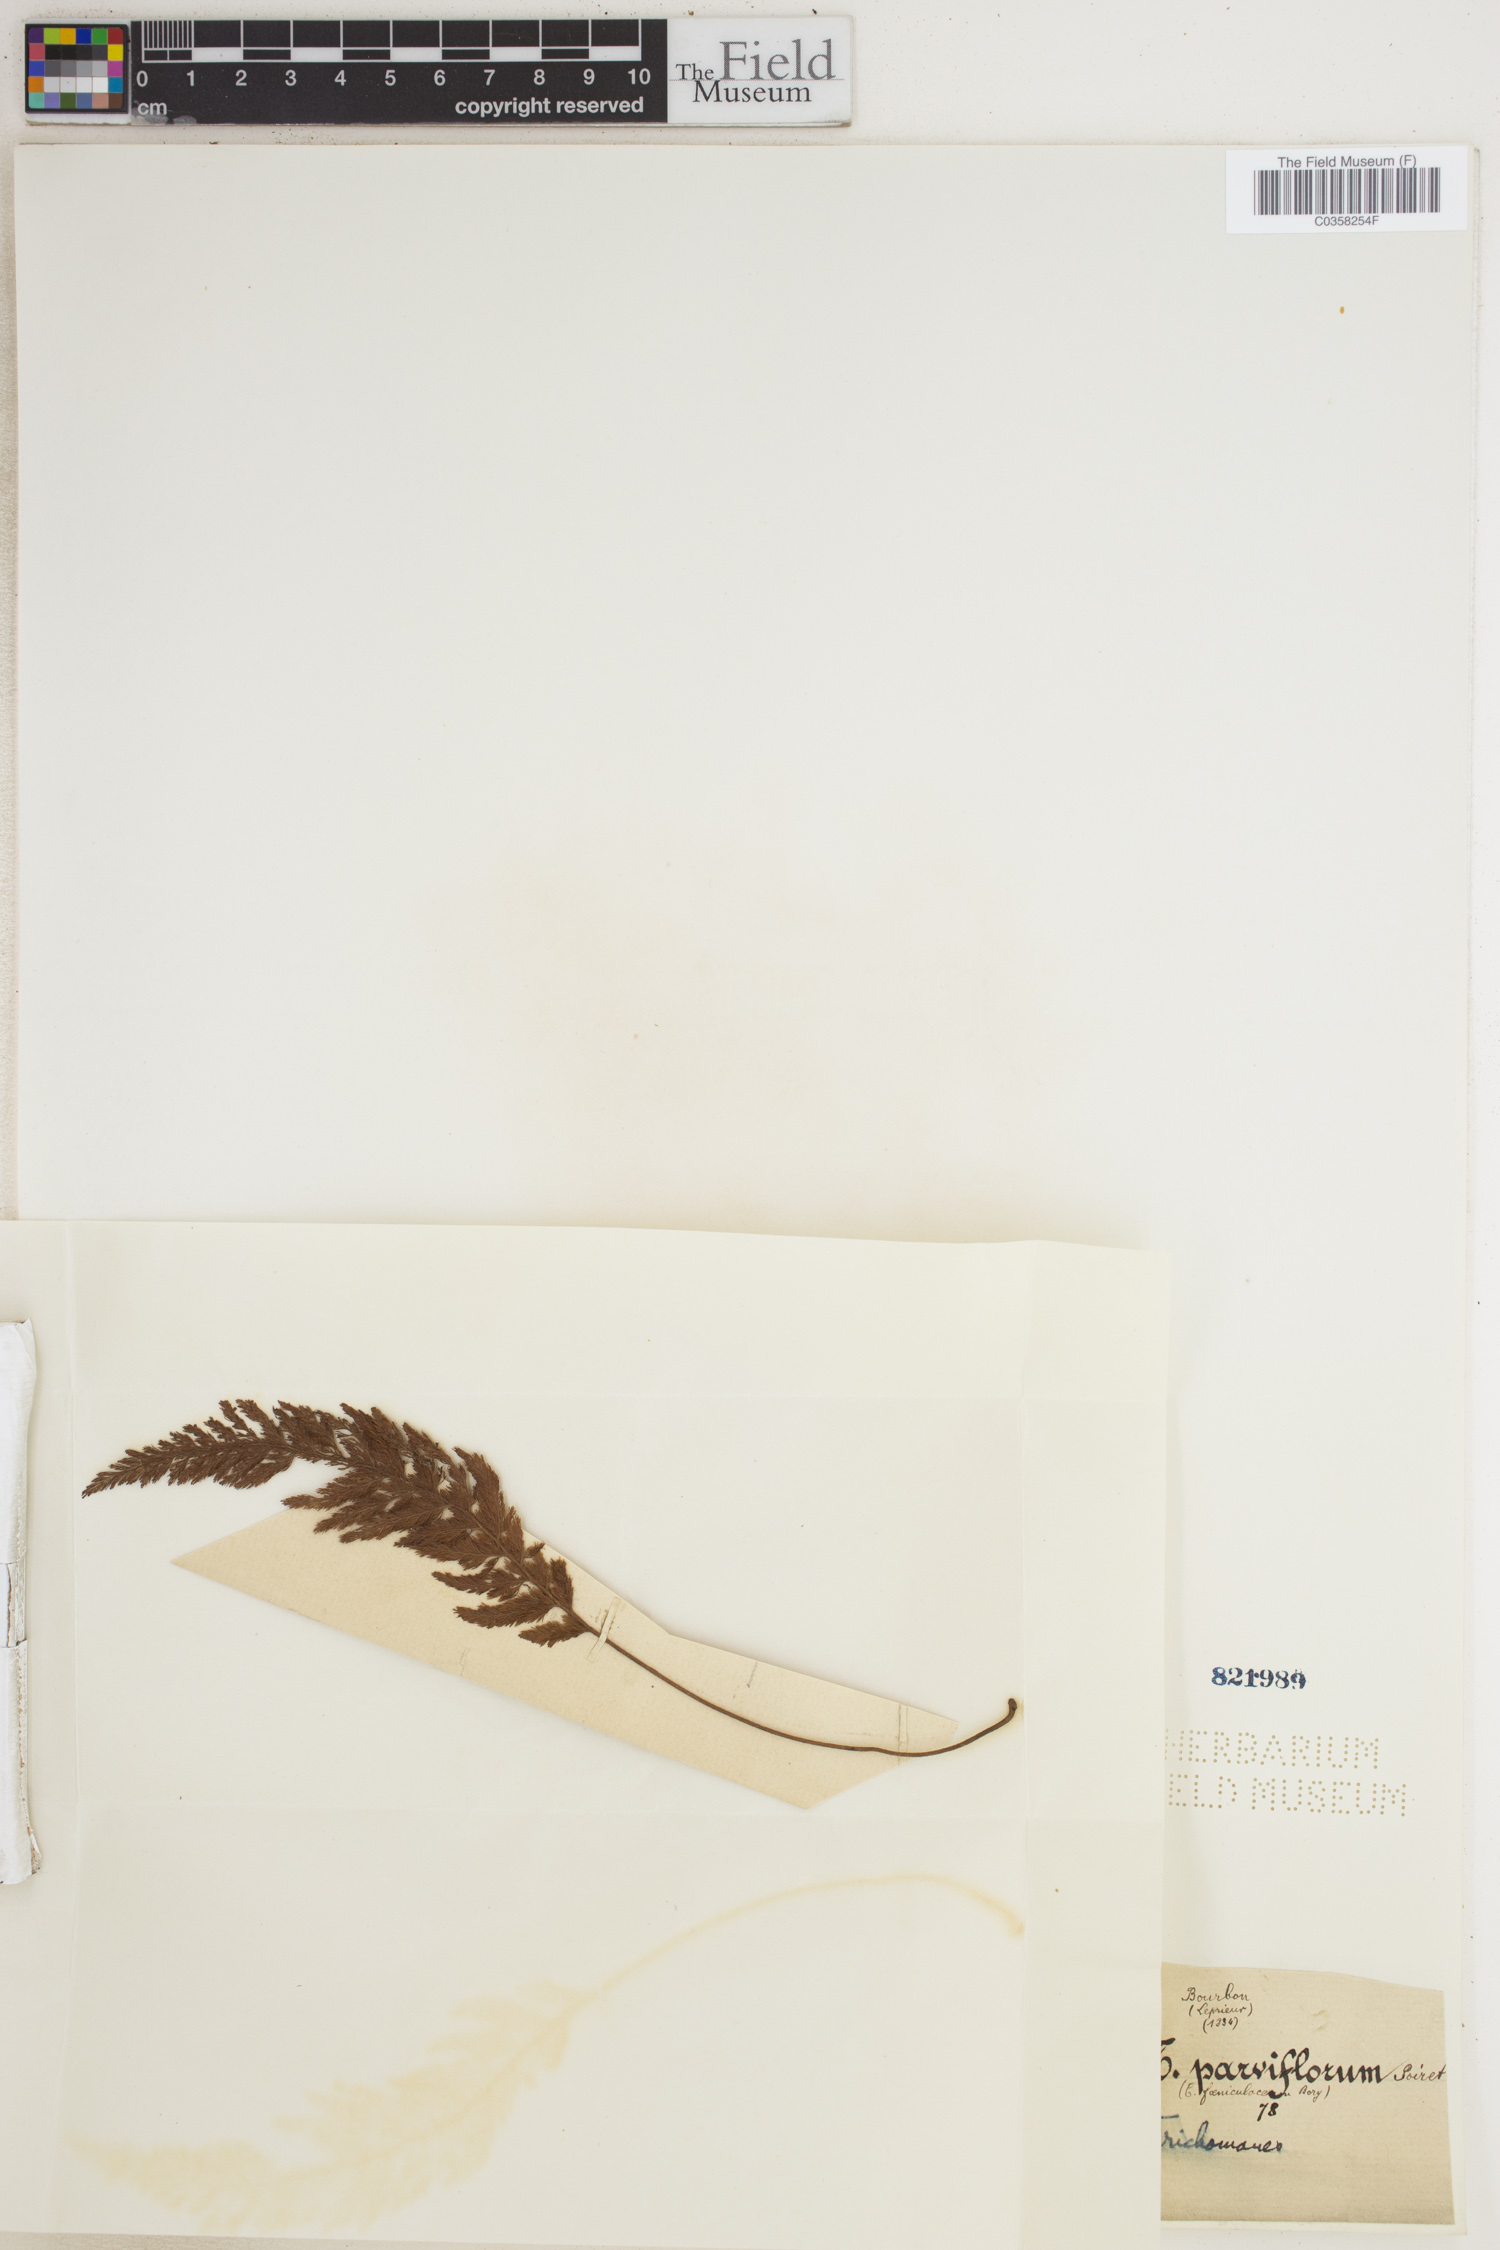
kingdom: Plantae
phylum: Tracheophyta
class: Polypodiopsida
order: Hymenophyllales
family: Hymenophyllaceae
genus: Abrodictyum
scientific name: Abrodictyum dregei
